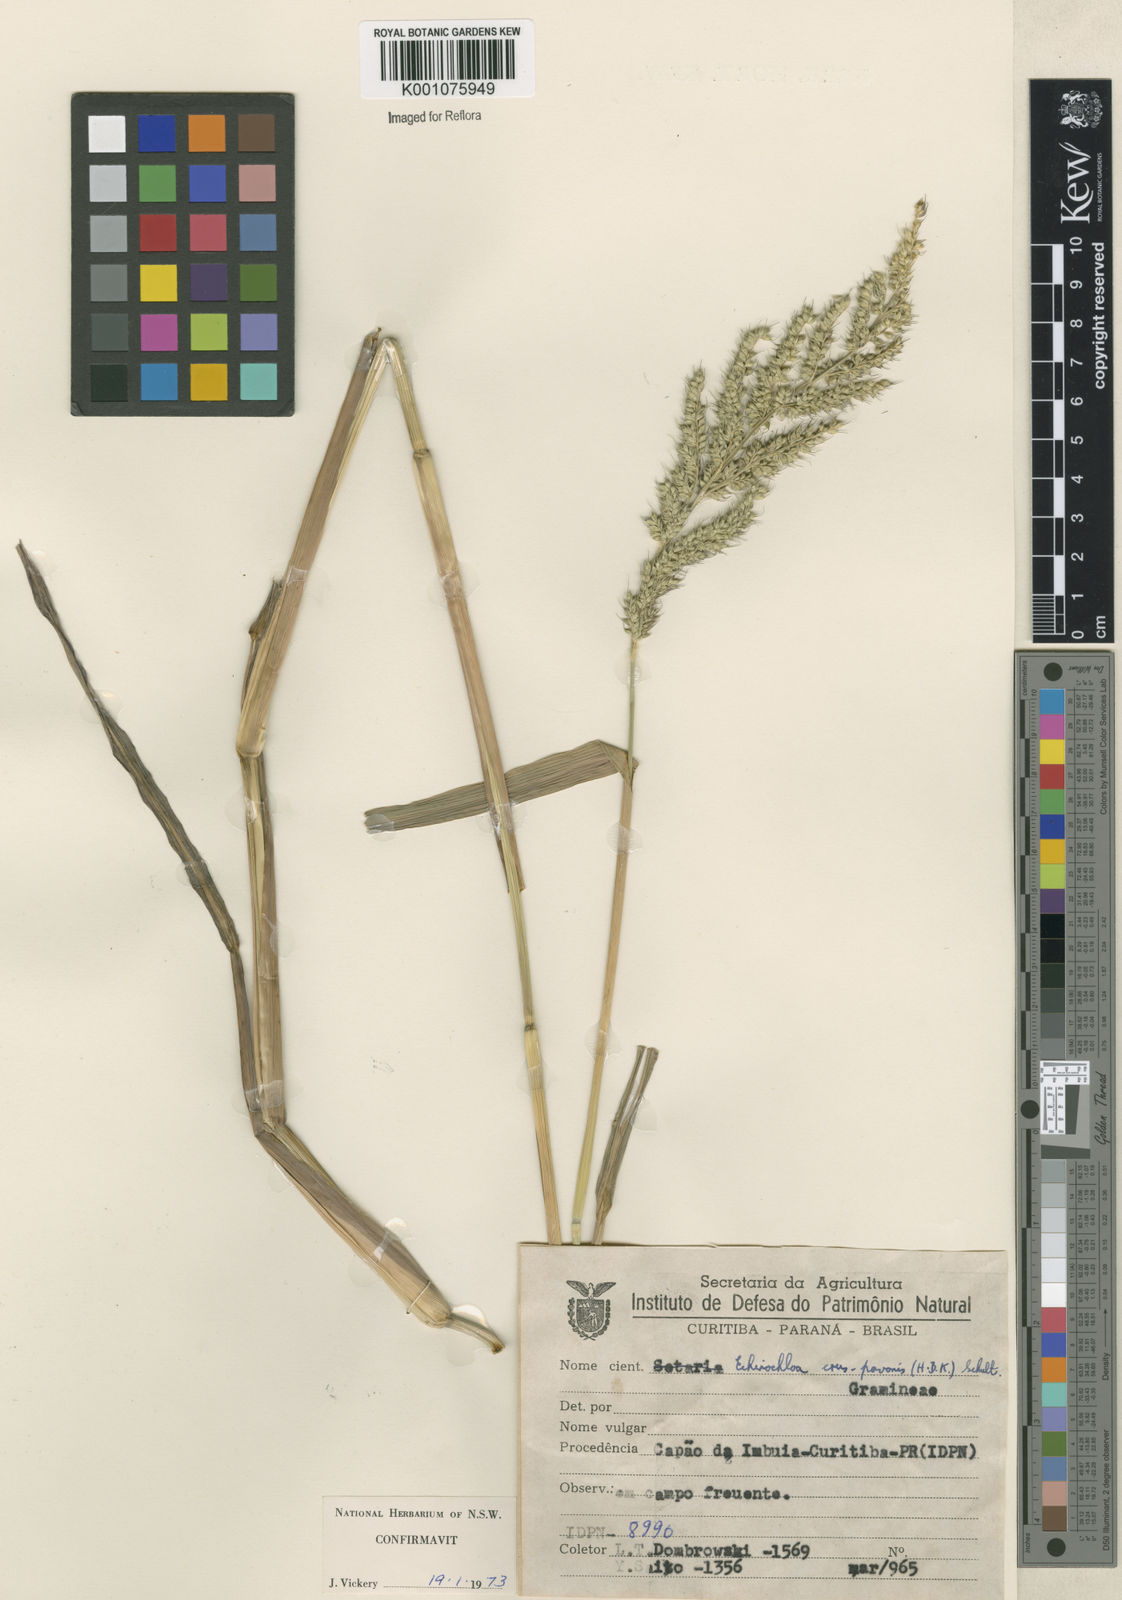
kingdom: Plantae
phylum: Tracheophyta
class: Liliopsida
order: Poales
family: Poaceae
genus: Echinochloa
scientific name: Echinochloa crus-pavonis
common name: Gulf cockspur grass
